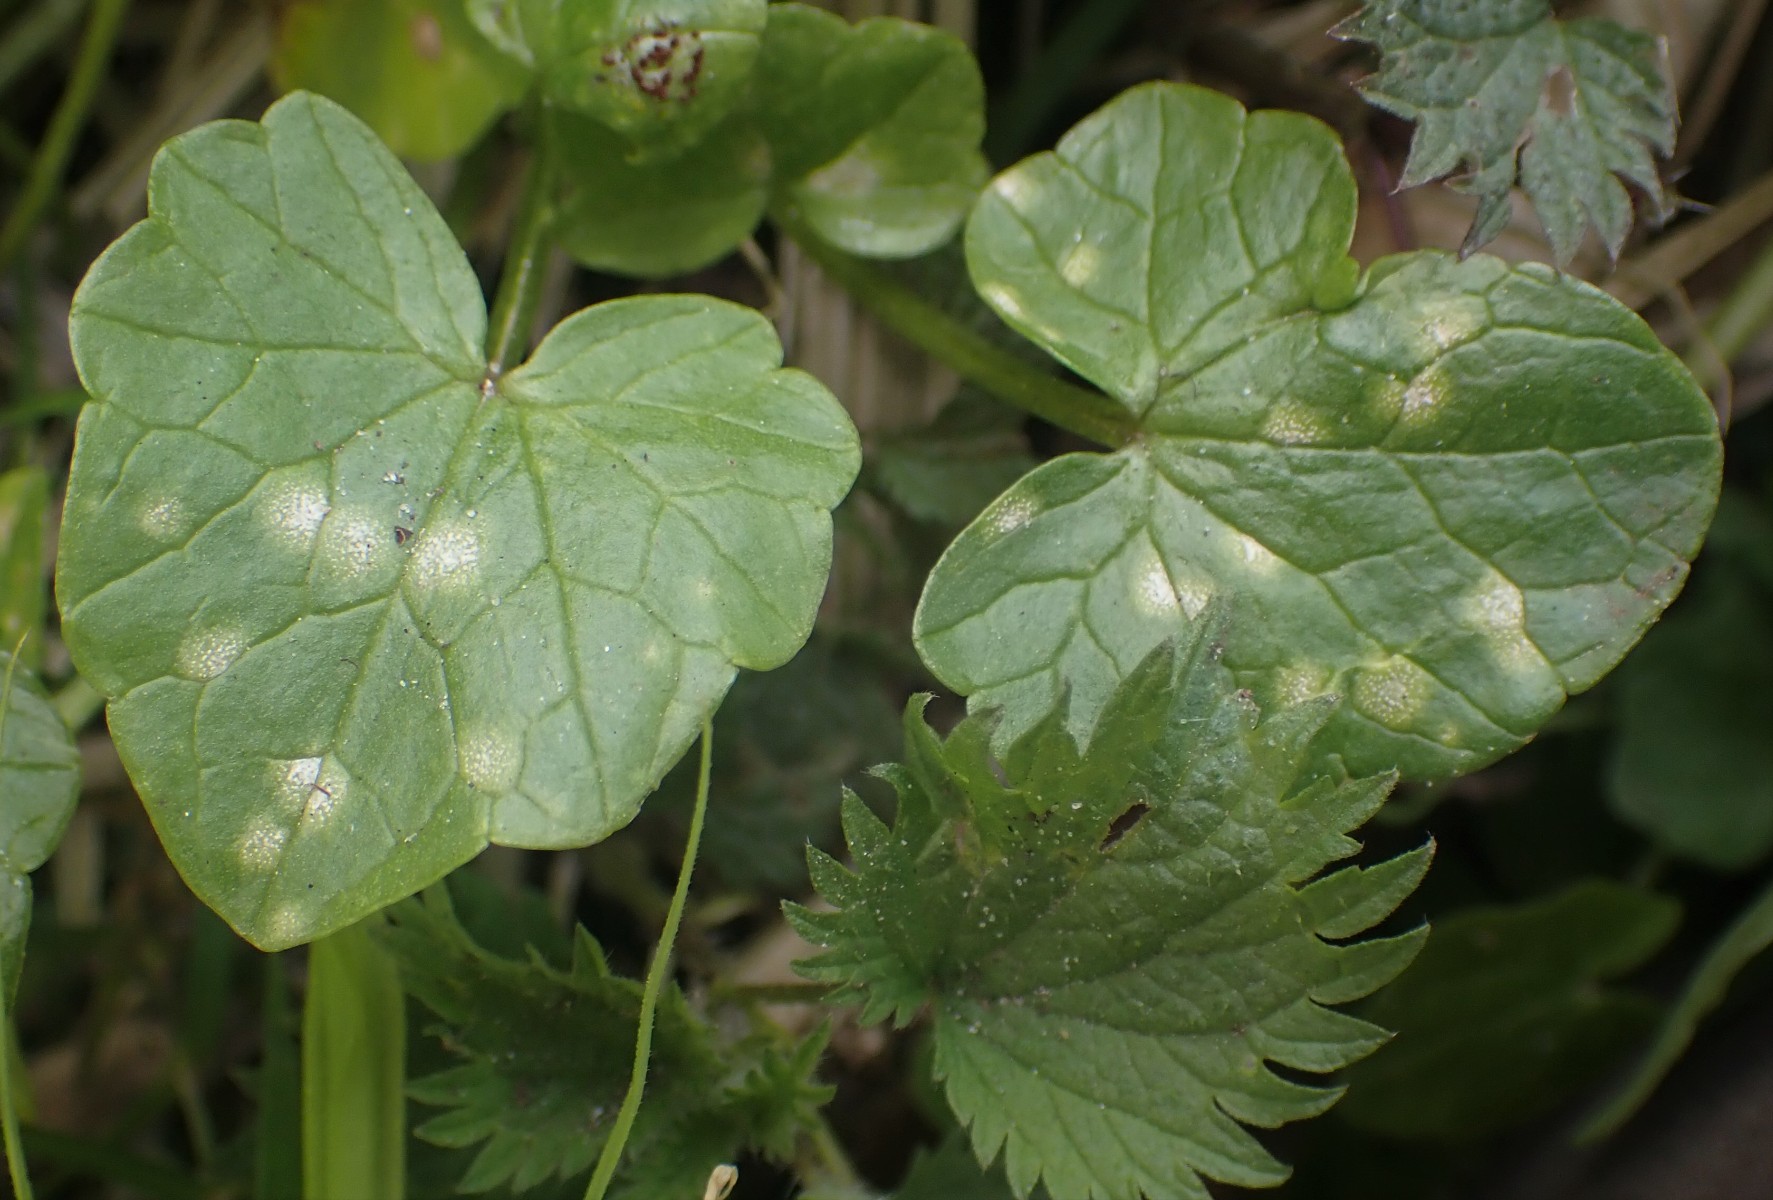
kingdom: Fungi
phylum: Basidiomycota
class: Exobasidiomycetes
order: Entylomatales
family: Entylomataceae
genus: Entyloma
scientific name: Entyloma ficariae
